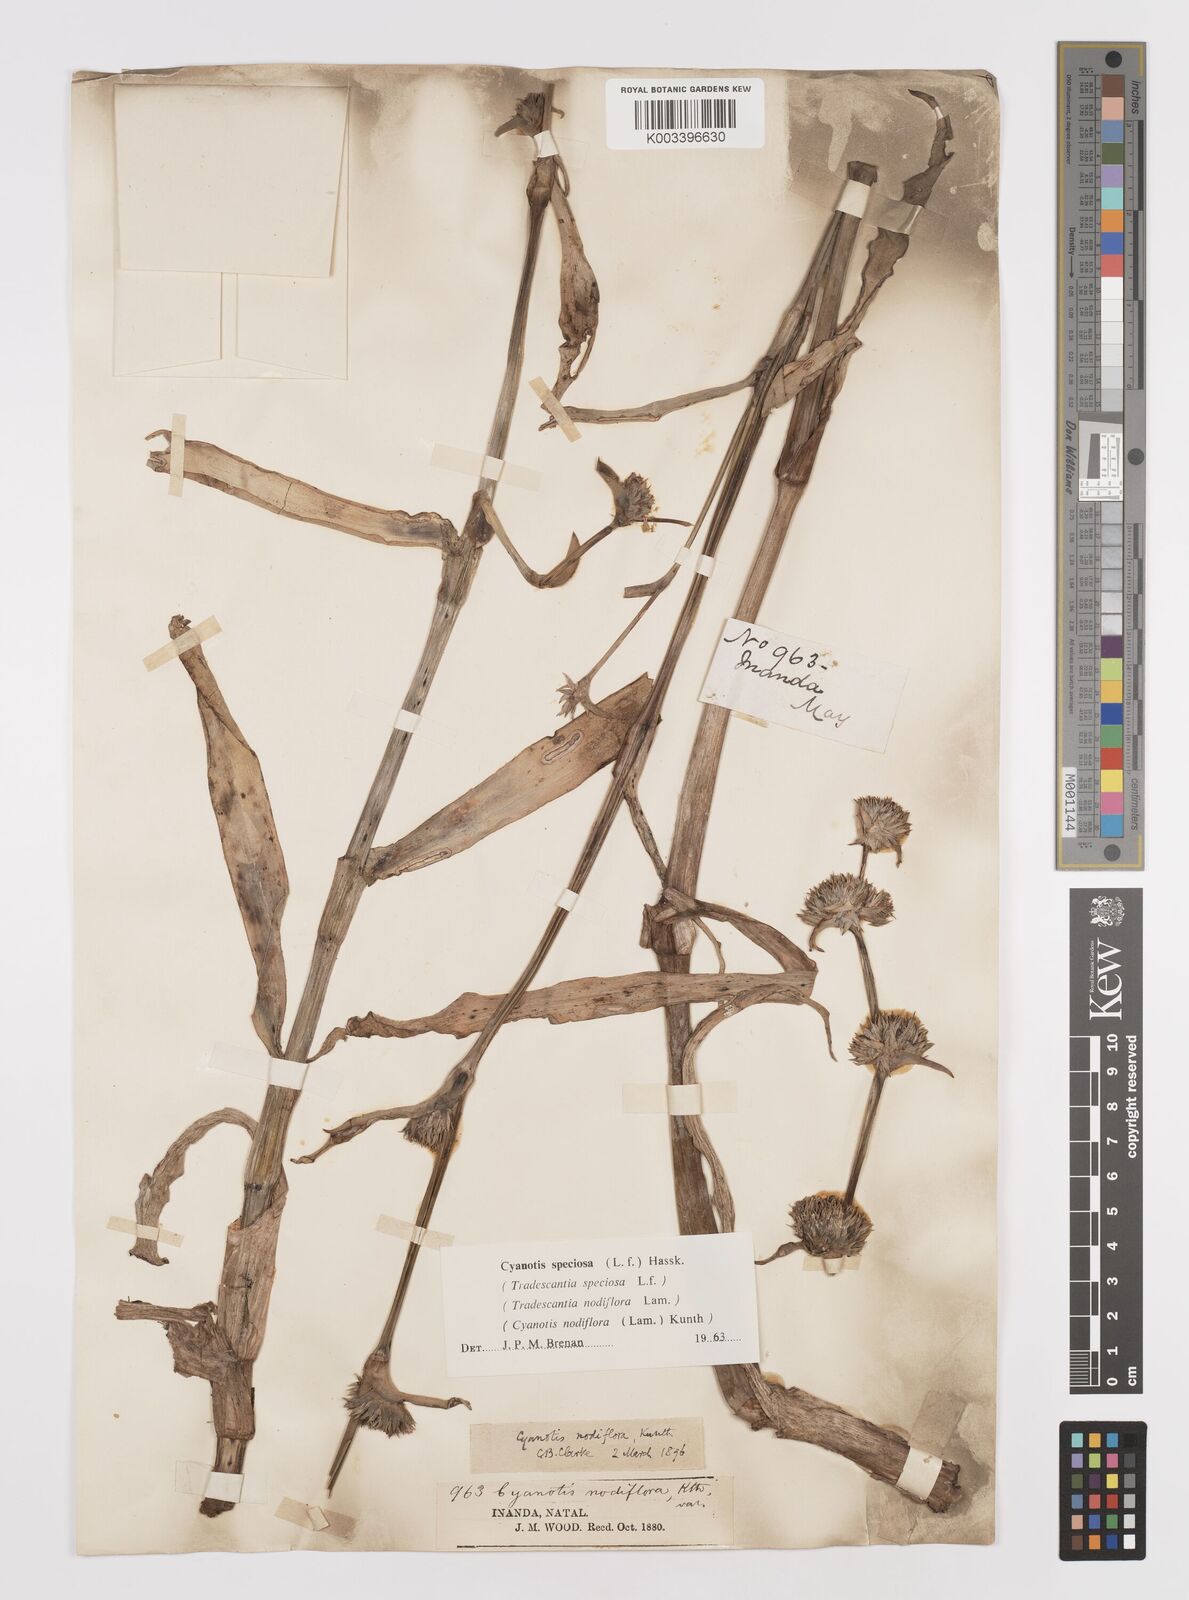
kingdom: Plantae
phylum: Tracheophyta
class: Liliopsida
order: Commelinales
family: Commelinaceae
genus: Cyanotis
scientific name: Cyanotis speciosa
